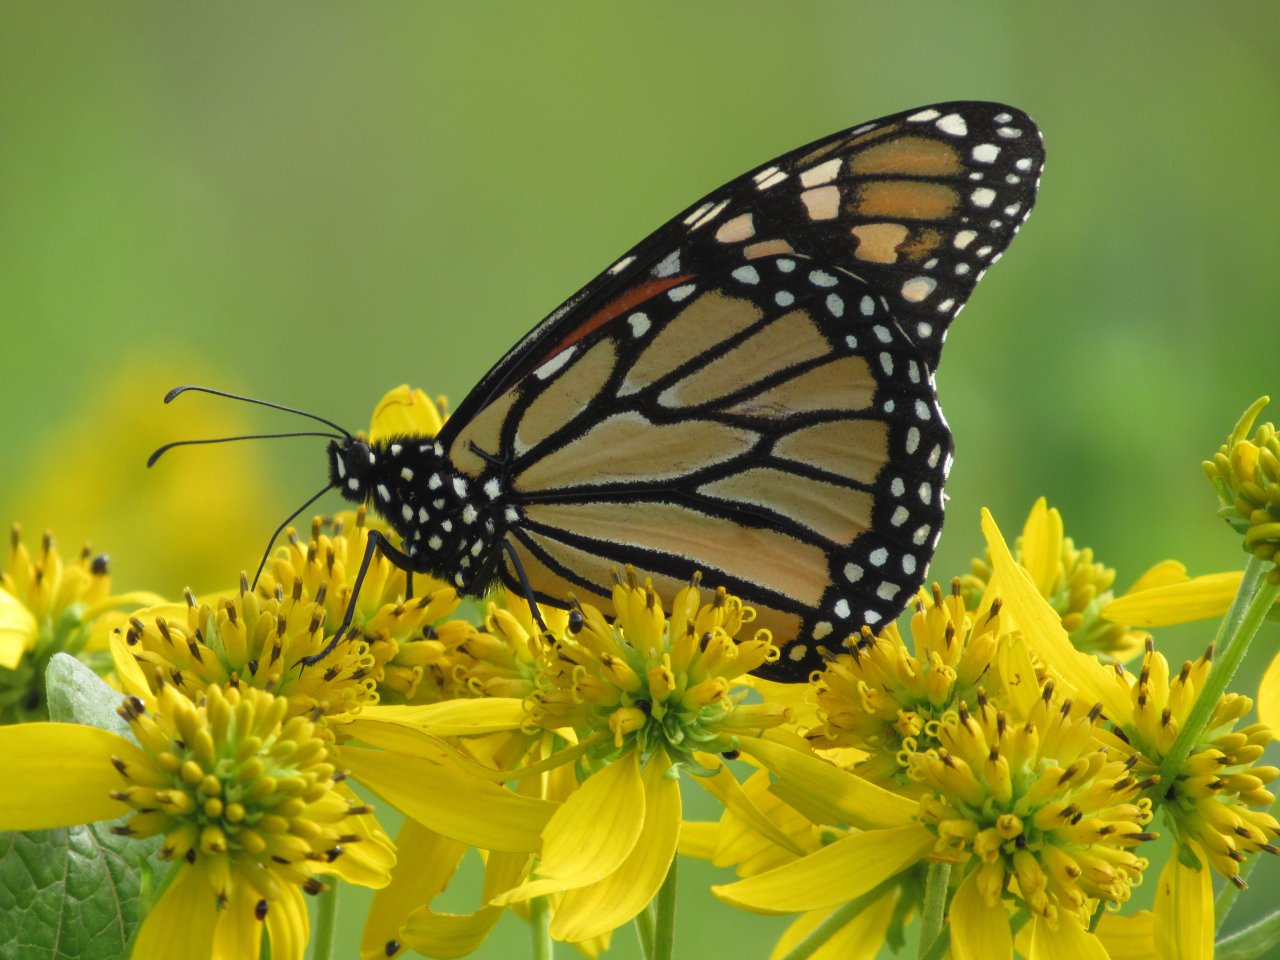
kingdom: Animalia
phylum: Arthropoda
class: Insecta
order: Lepidoptera
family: Nymphalidae
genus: Danaus
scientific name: Danaus plexippus
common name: Monarch
